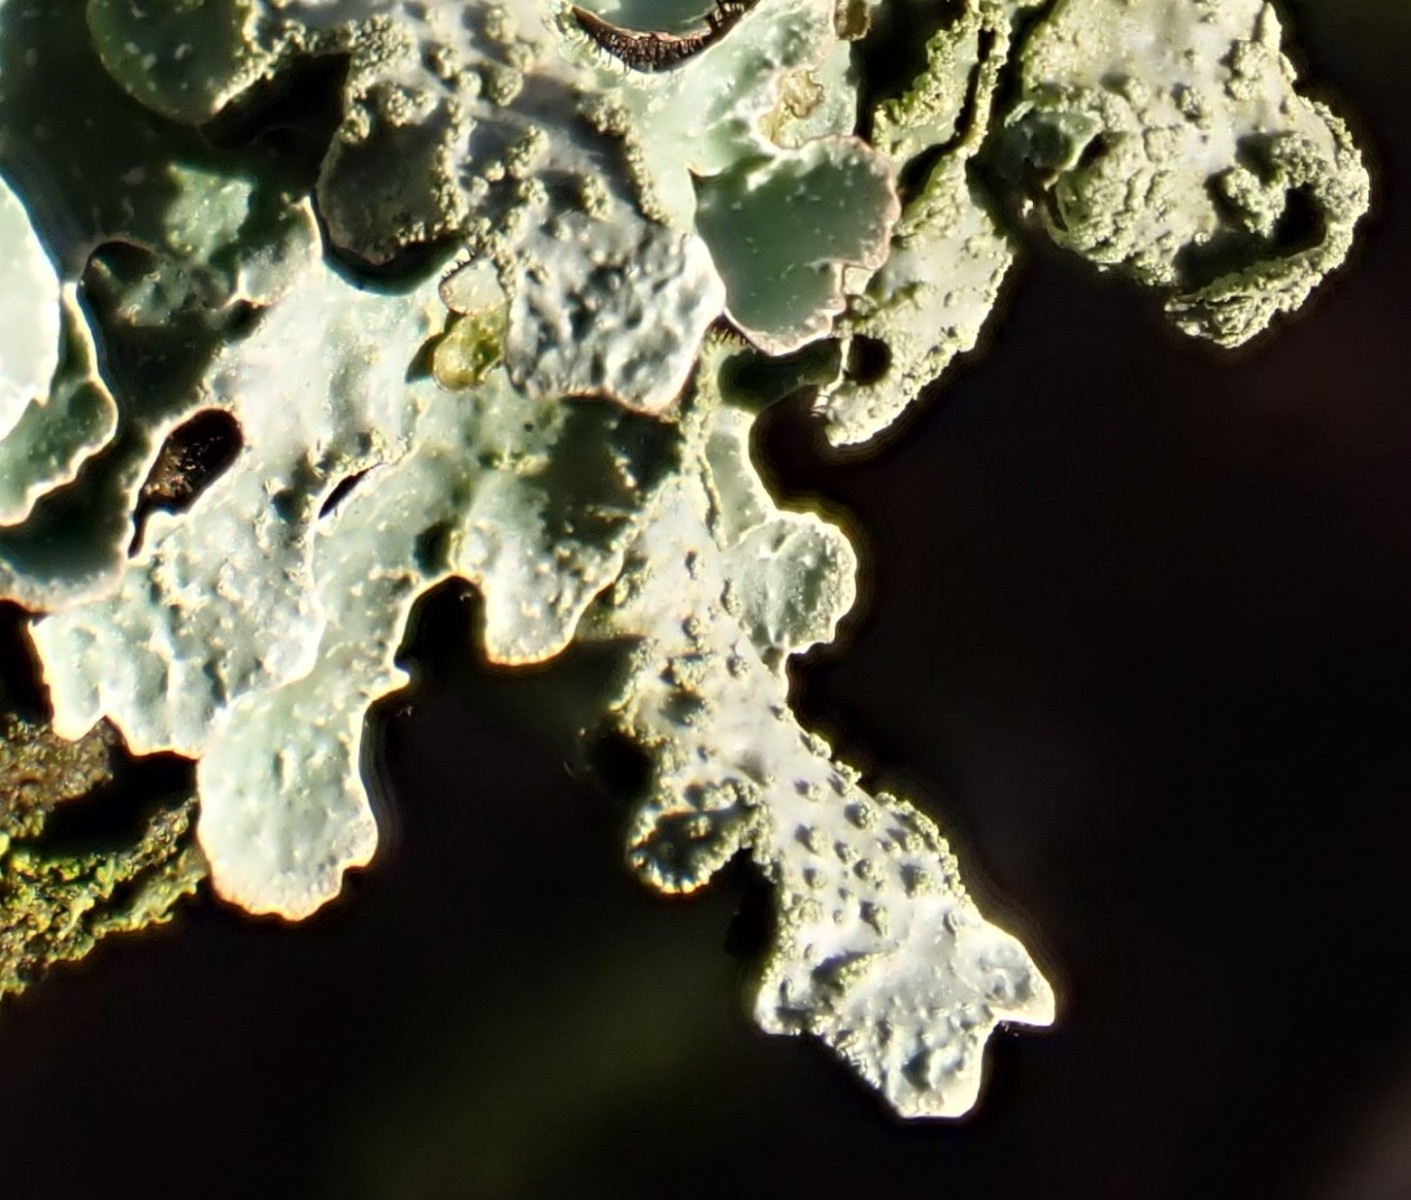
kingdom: Fungi
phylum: Ascomycota
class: Lecanoromycetes
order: Lecanorales
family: Parmeliaceae
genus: Parmelia
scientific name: Parmelia sulcata
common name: rynket skållav
